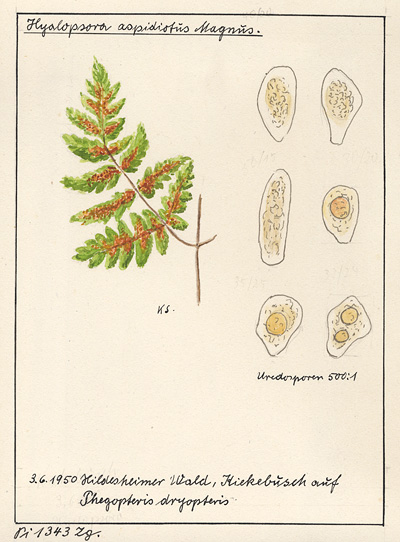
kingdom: Plantae
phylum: Tracheophyta
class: Polypodiopsida
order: Polypodiales
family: Cystopteridaceae
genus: Gymnocarpium
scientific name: Gymnocarpium dryopteris
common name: Oak fern
